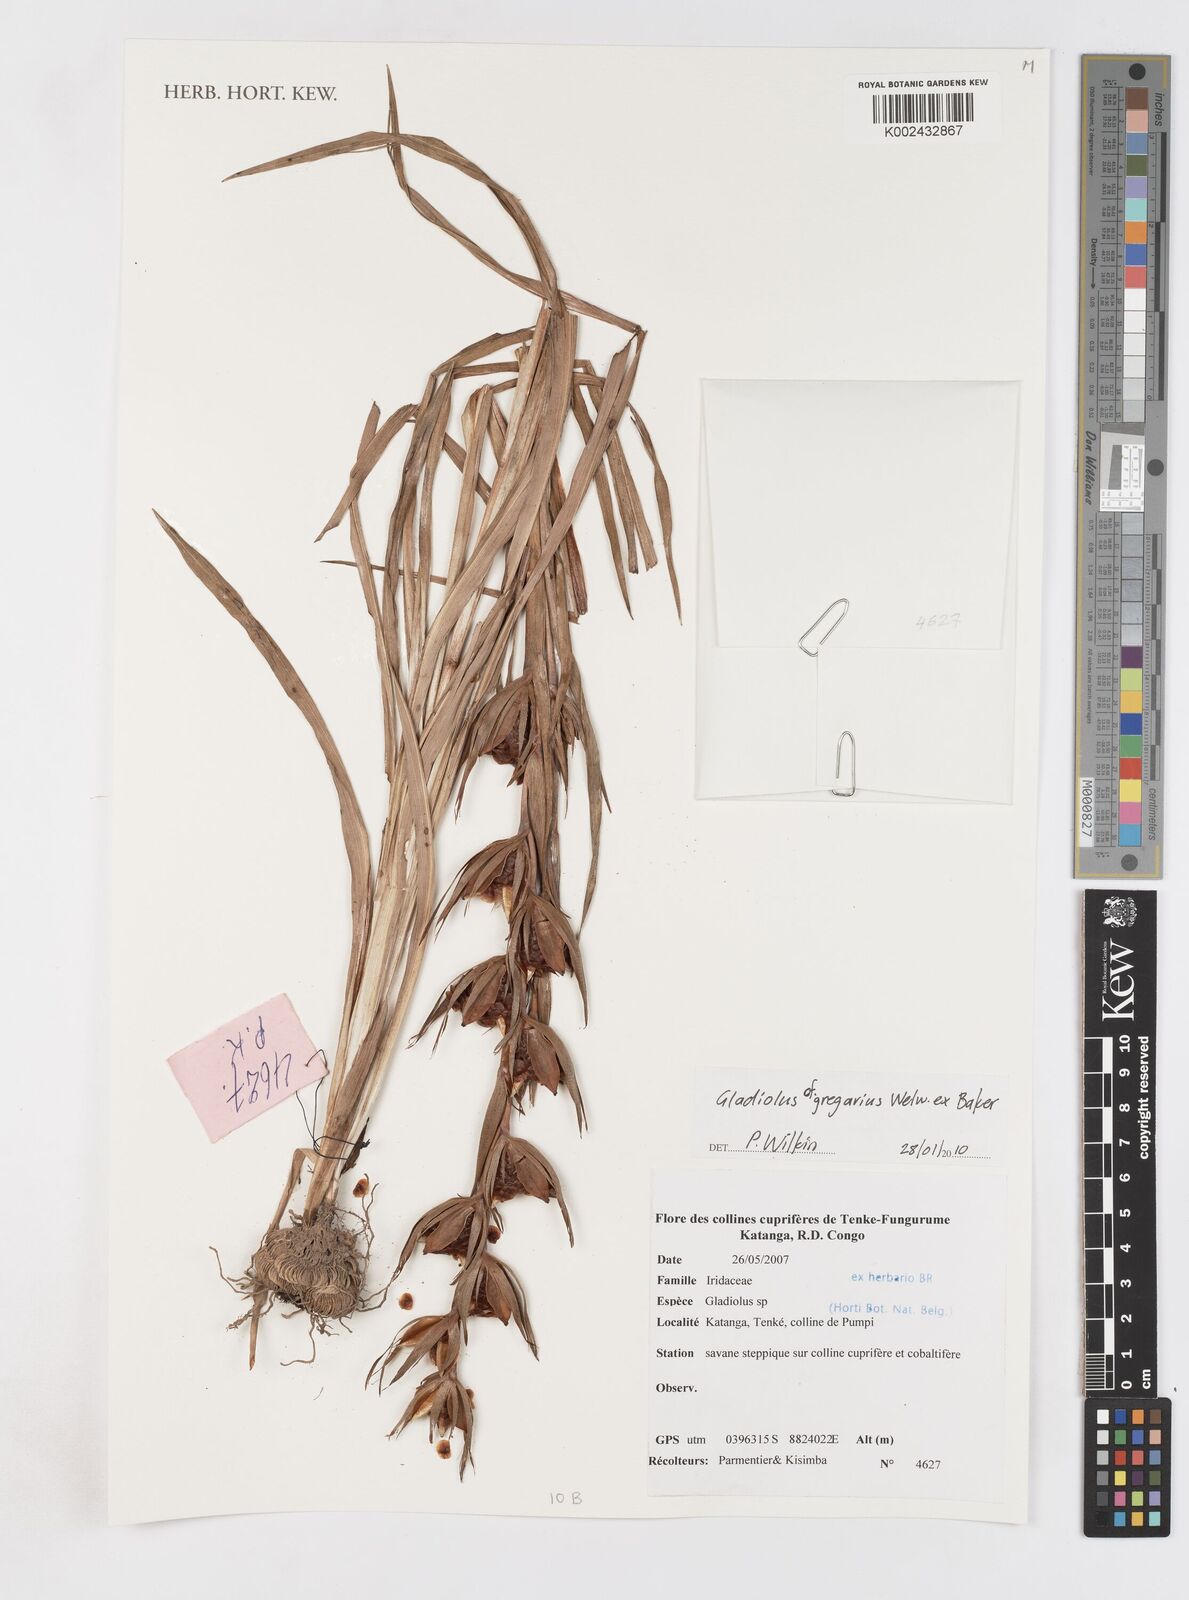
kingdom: Plantae
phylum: Tracheophyta
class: Liliopsida
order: Asparagales
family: Iridaceae
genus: Gladiolus
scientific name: Gladiolus gregarius
